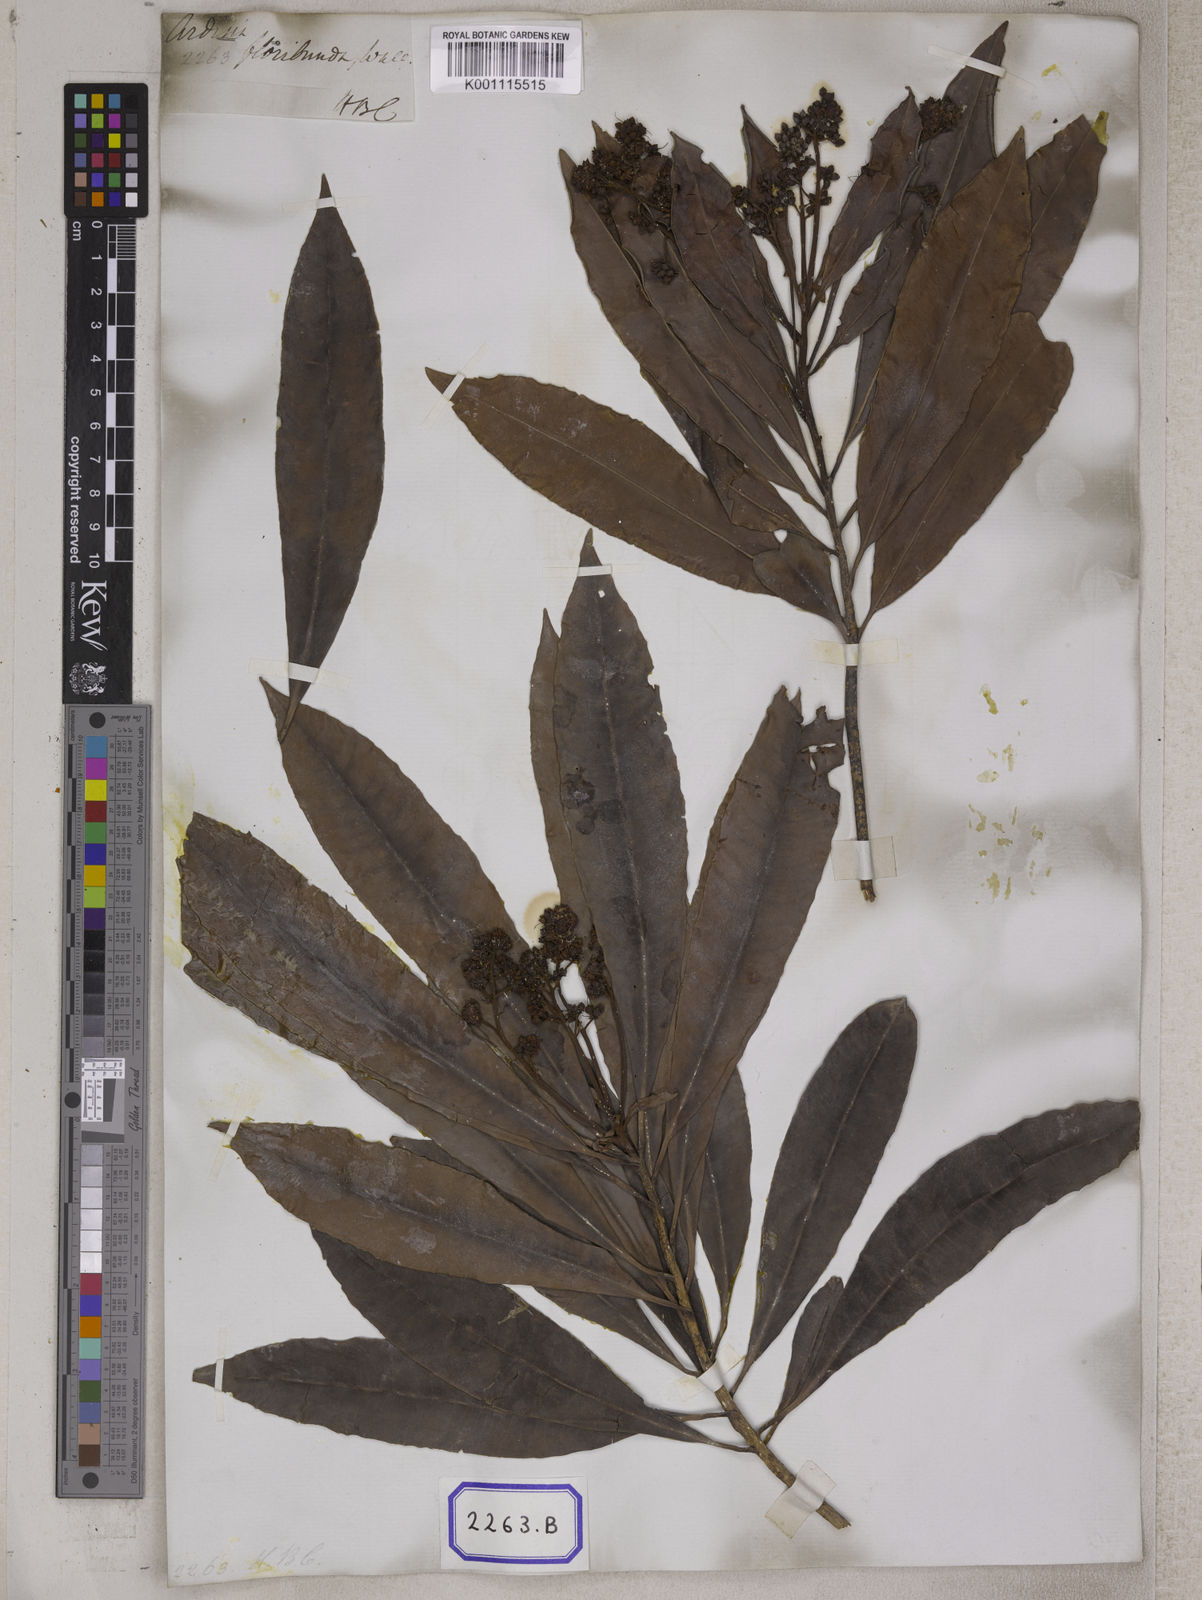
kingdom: Plantae
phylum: Tracheophyta
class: Magnoliopsida
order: Ericales
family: Primulaceae
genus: Ardisia
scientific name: Ardisia floribunda
